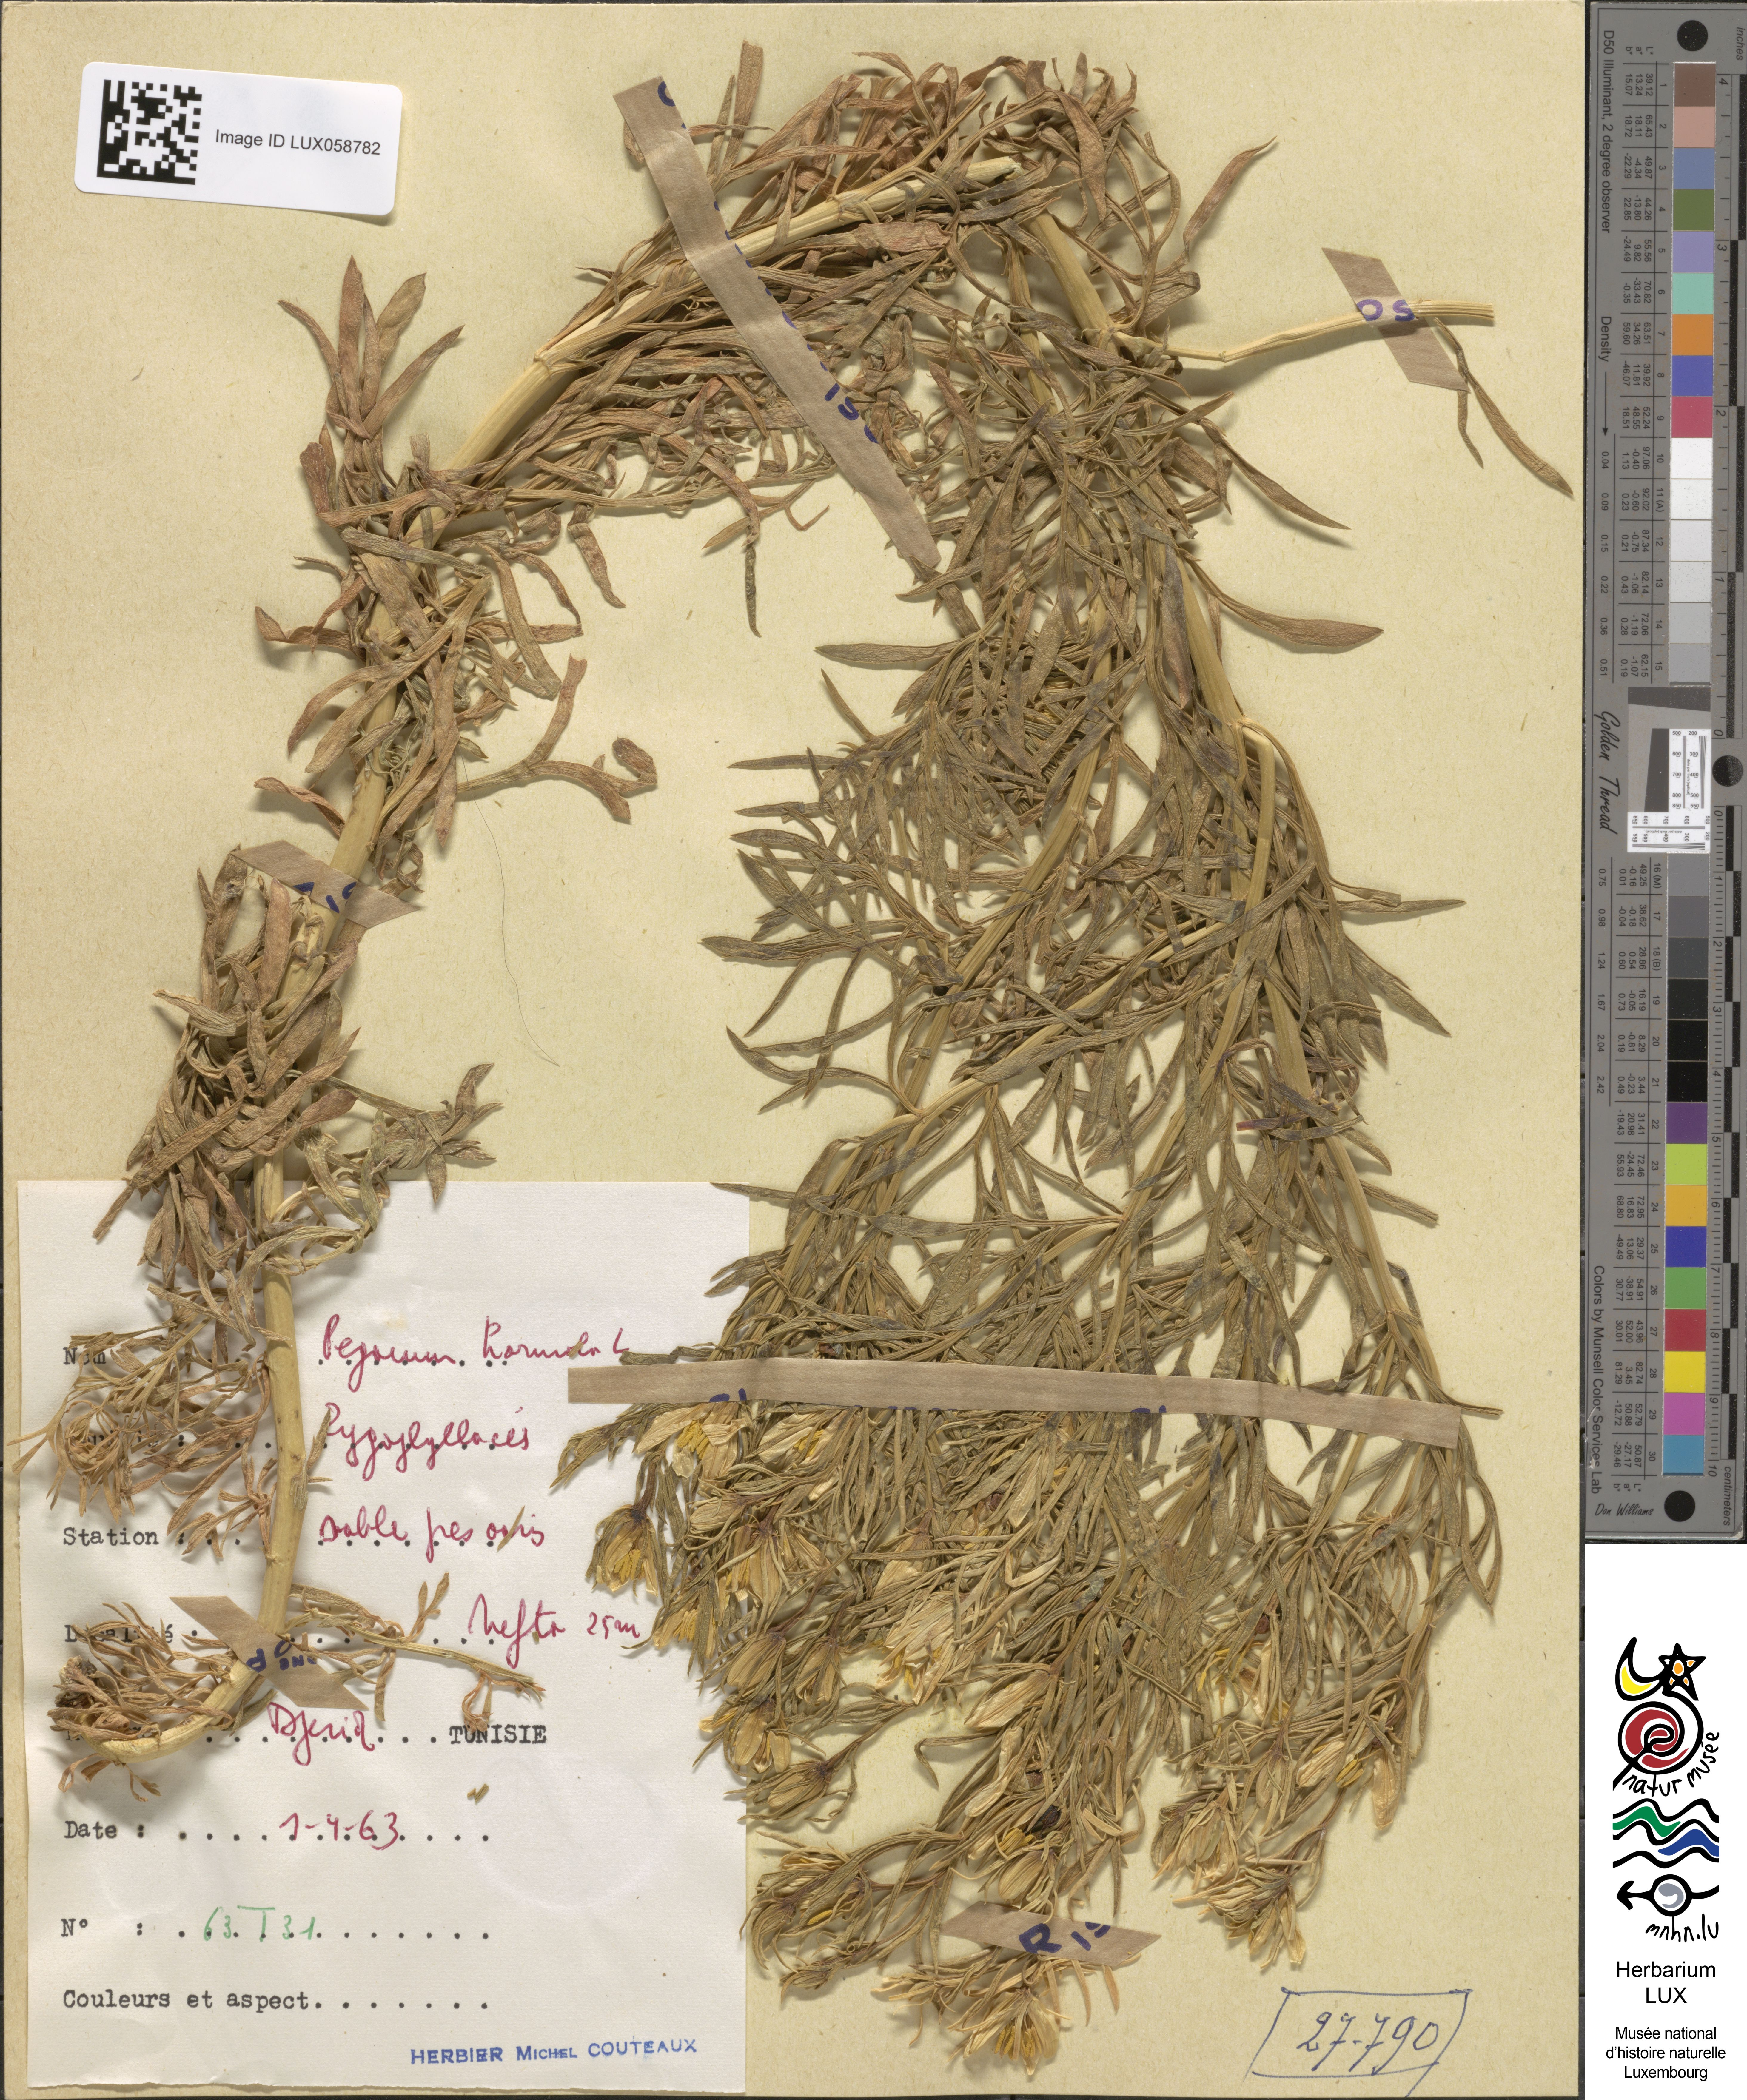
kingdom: Plantae
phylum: Tracheophyta
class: Magnoliopsida
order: Sapindales
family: Tetradiclidaceae
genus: Peganum
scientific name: Peganum harmala
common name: Harmal peganum
